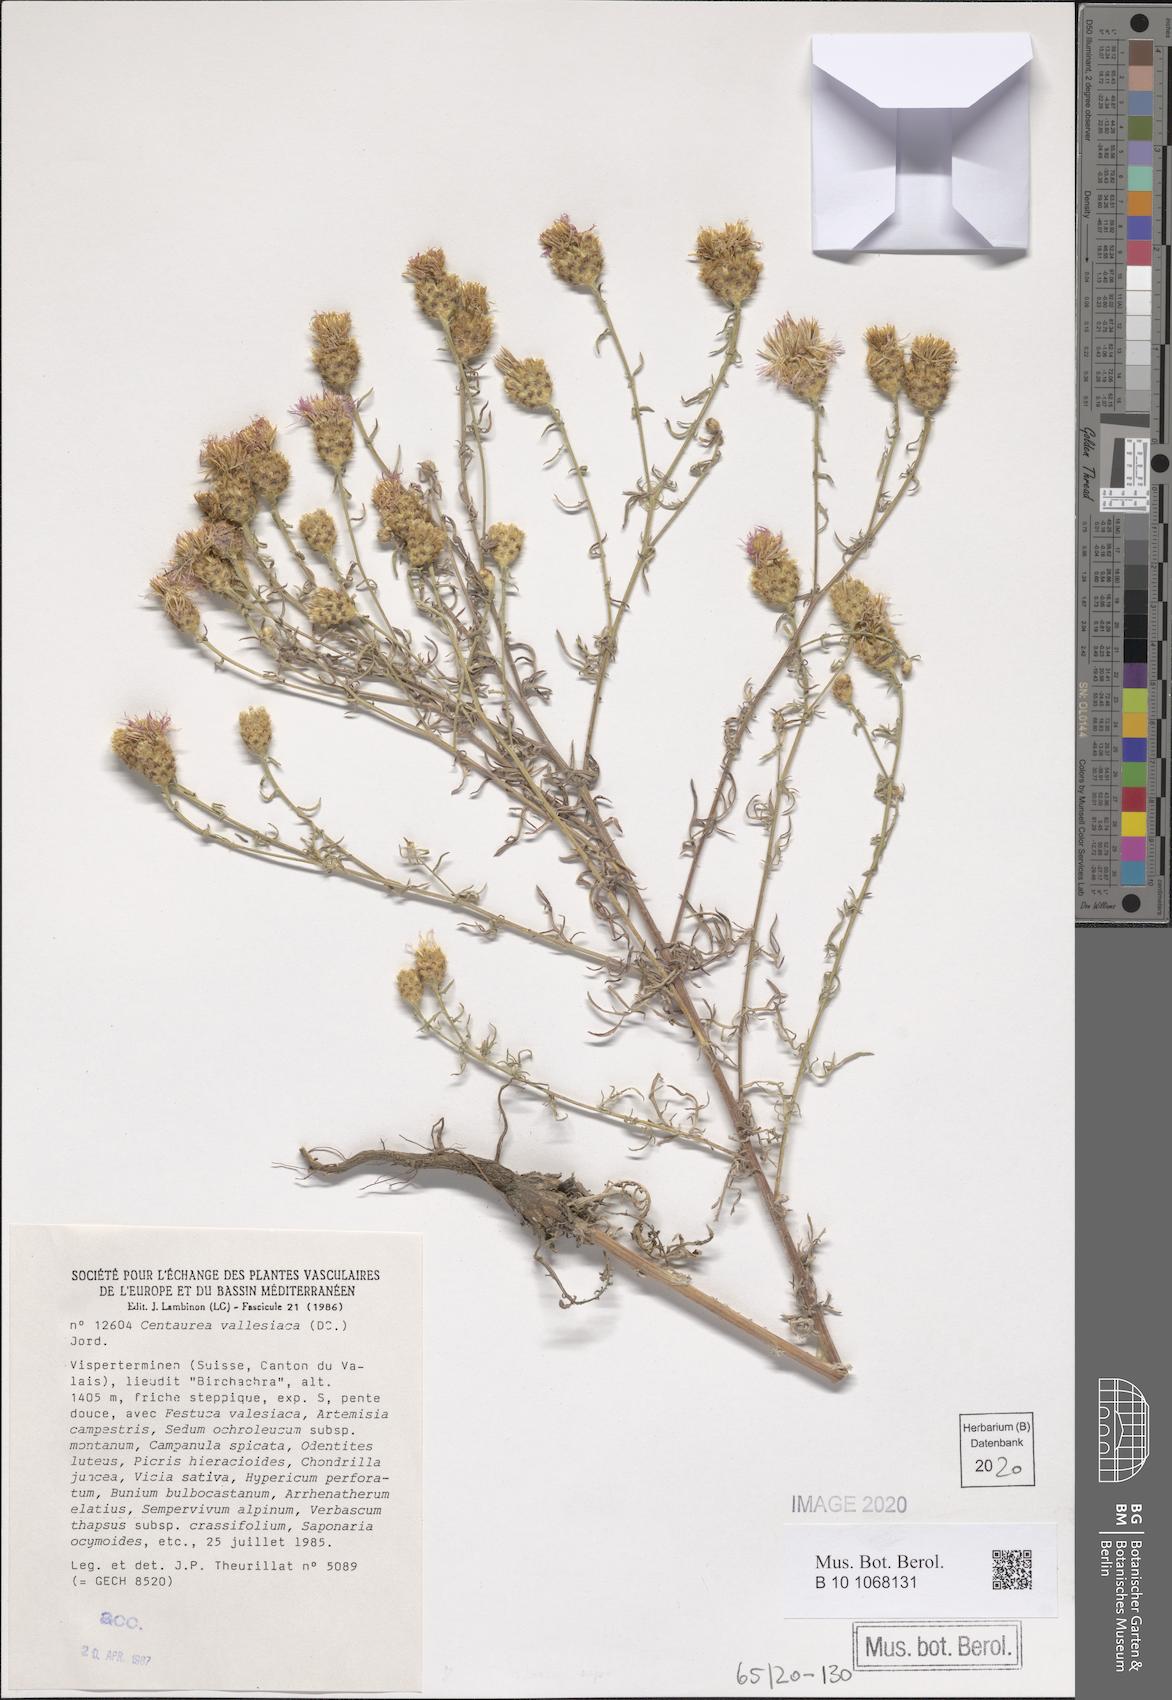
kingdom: Plantae
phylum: Tracheophyta
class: Magnoliopsida
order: Asterales
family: Asteraceae
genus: Centaurea
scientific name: Centaurea valesiaca
